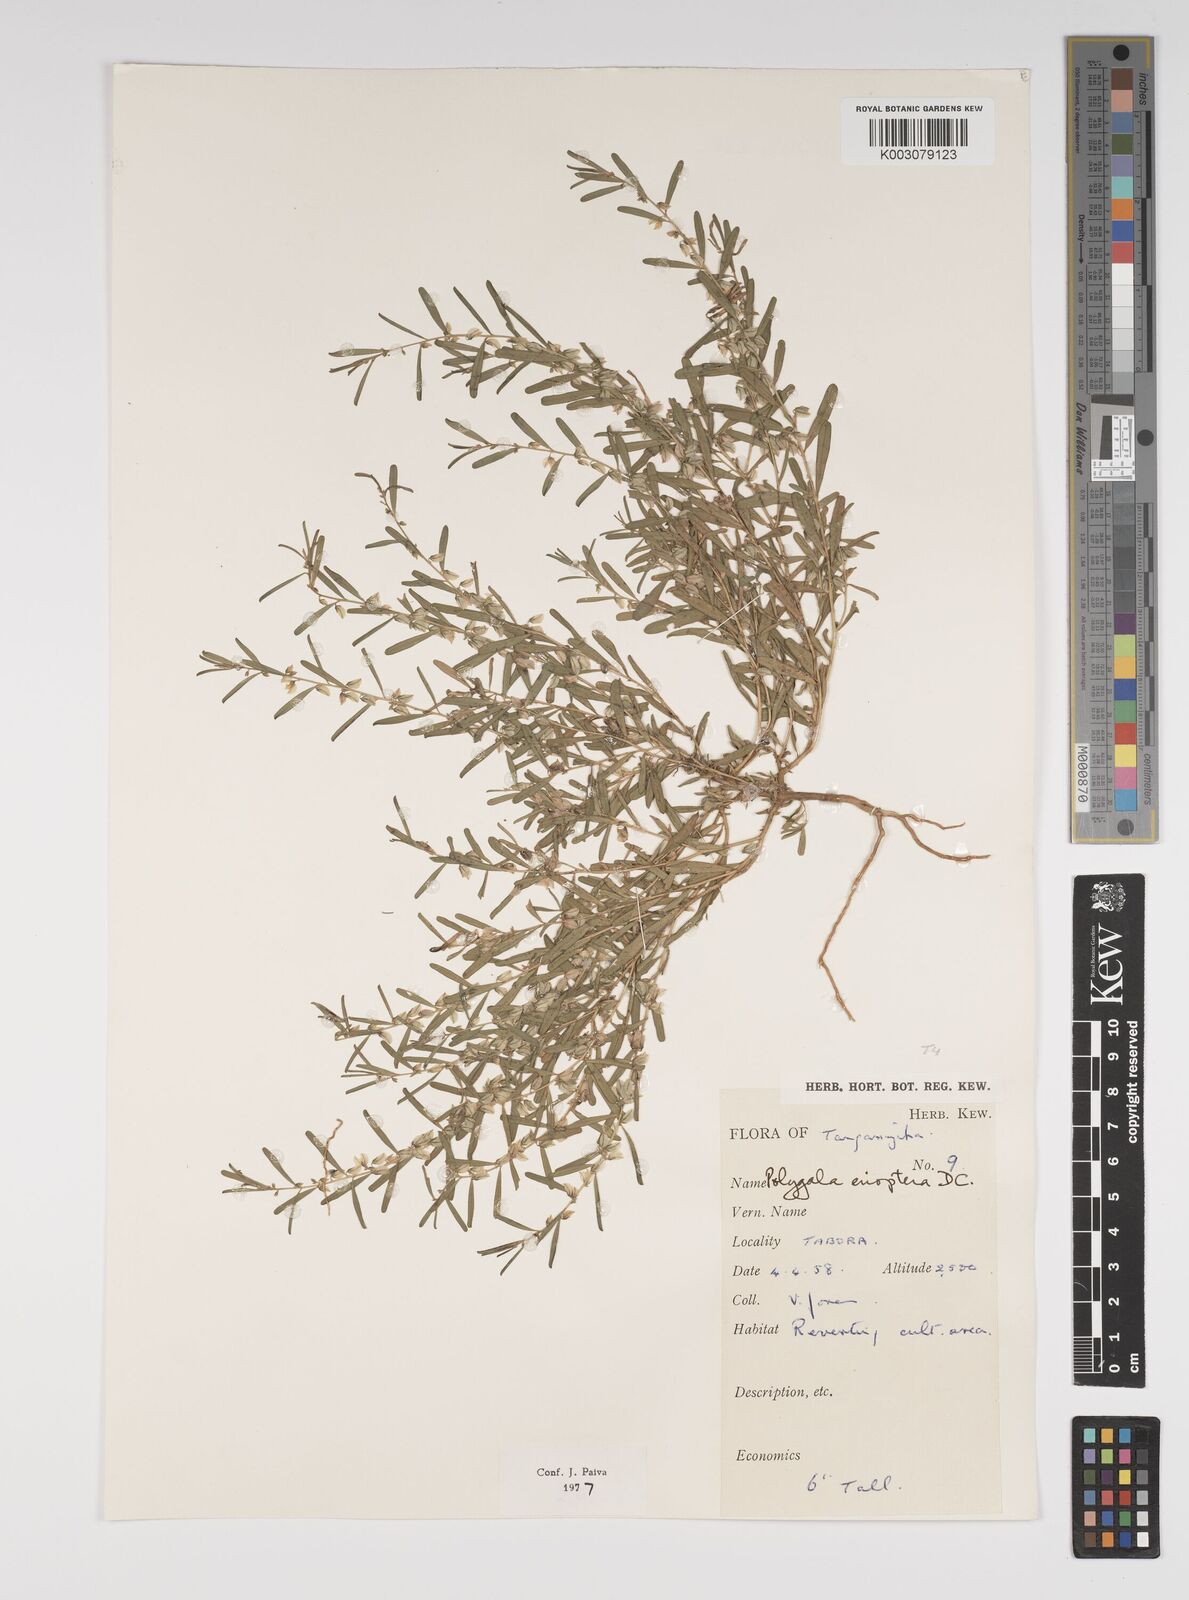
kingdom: Plantae
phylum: Tracheophyta
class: Magnoliopsida
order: Fabales
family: Polygalaceae
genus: Polygala
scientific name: Polygala erioptera
